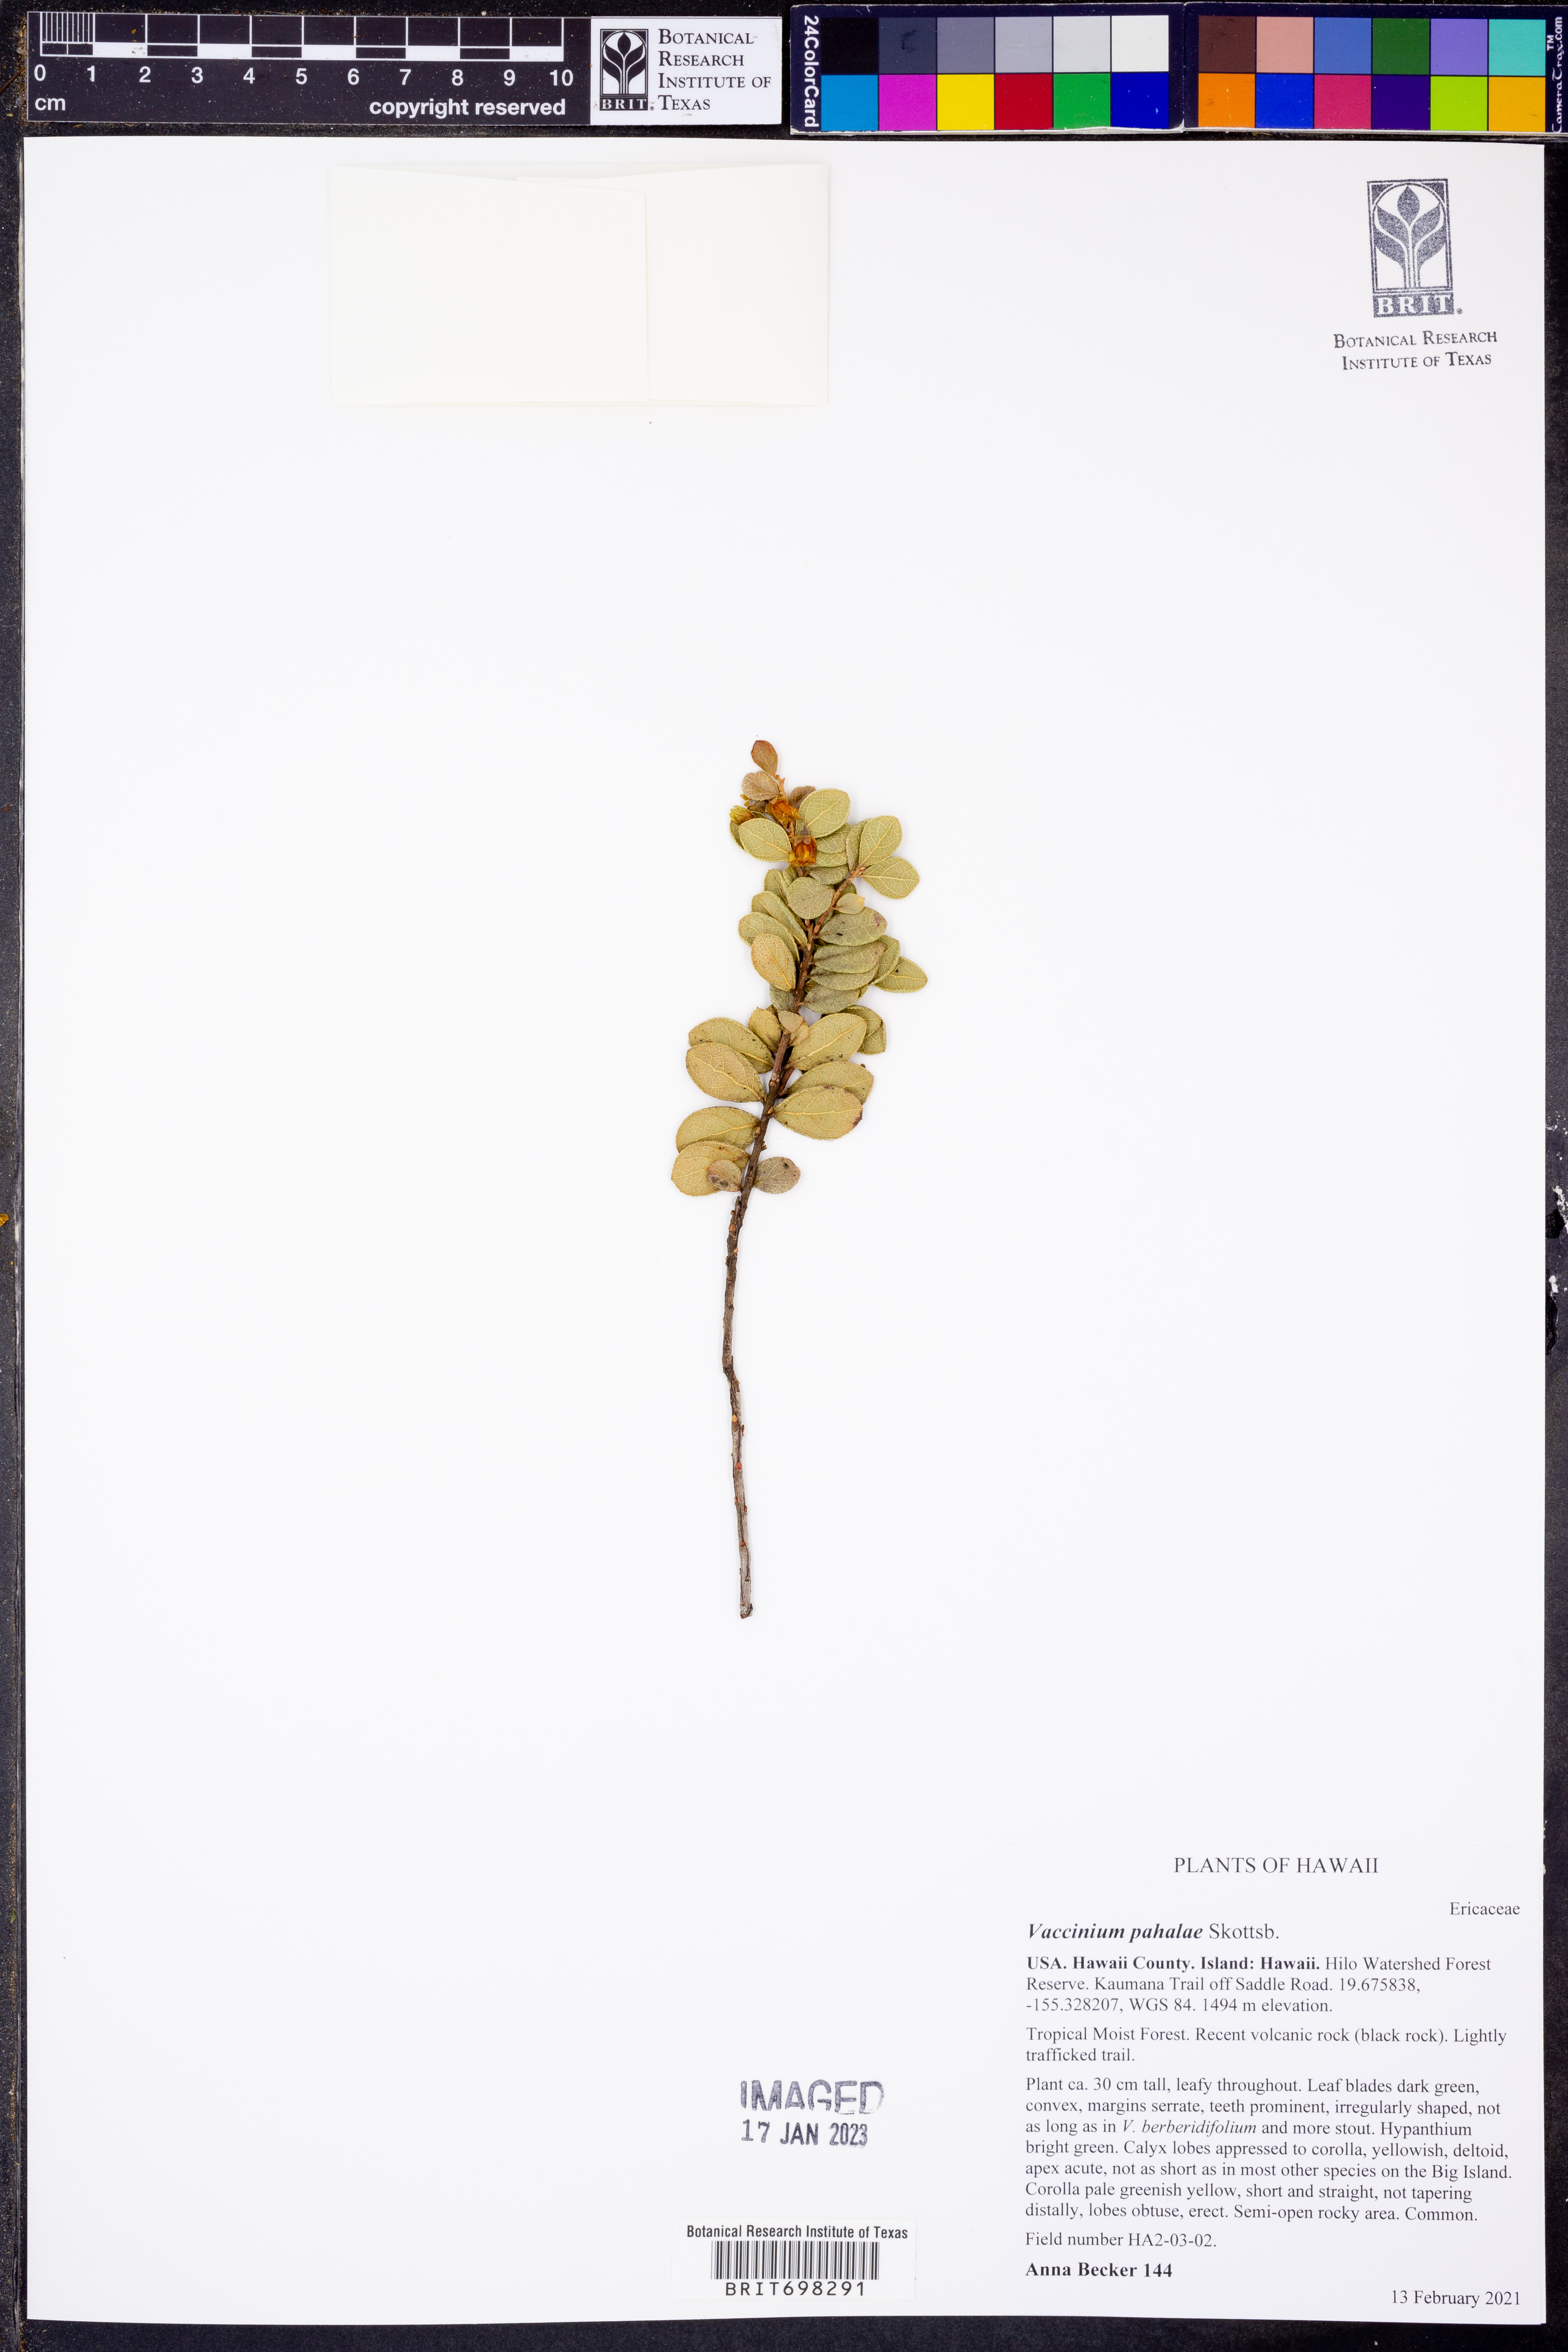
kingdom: Plantae
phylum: Tracheophyta
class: Magnoliopsida
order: Ericales
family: Ericaceae
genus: Vaccinium
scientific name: Vaccinium reticulatum
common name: Ohelo
